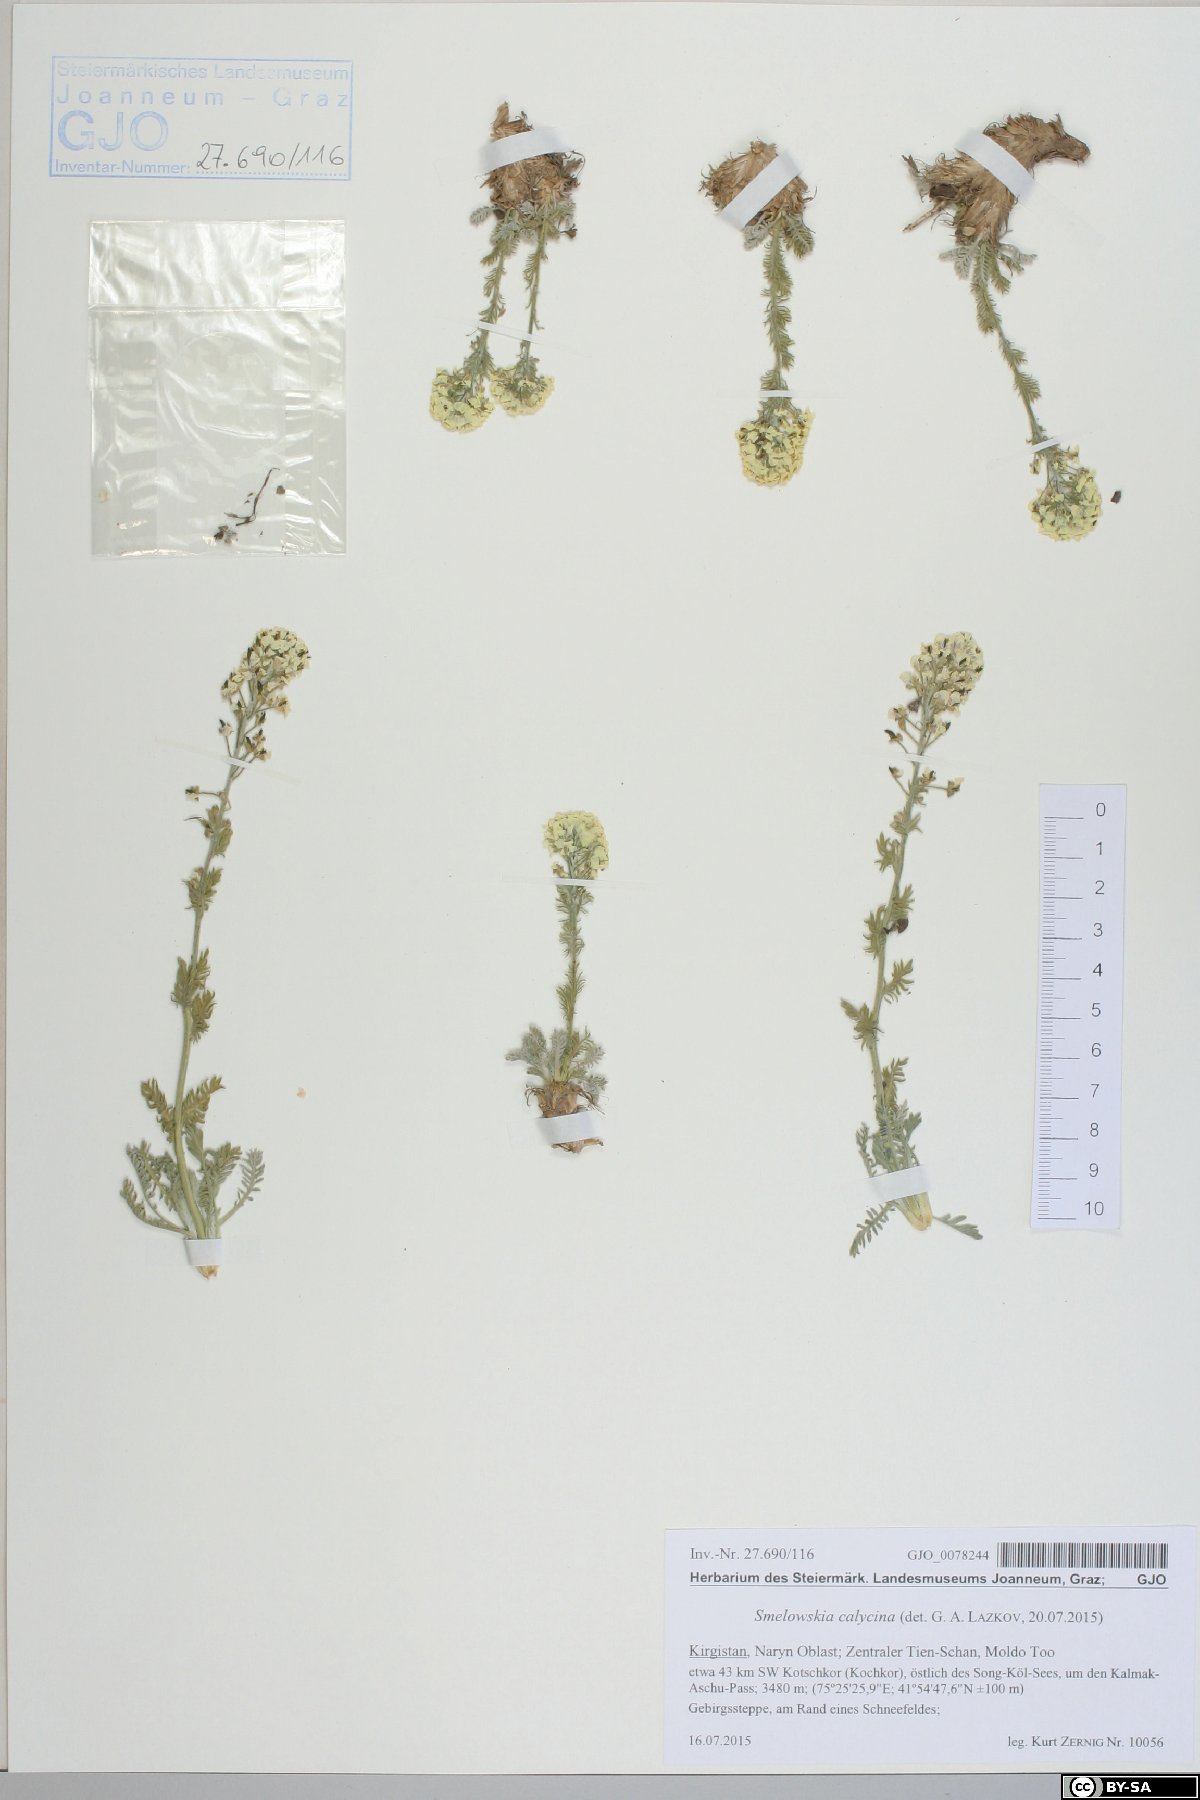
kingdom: Plantae
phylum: Tracheophyta
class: Magnoliopsida
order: Brassicales
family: Brassicaceae
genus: Smelowskia
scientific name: Smelowskia calycina
